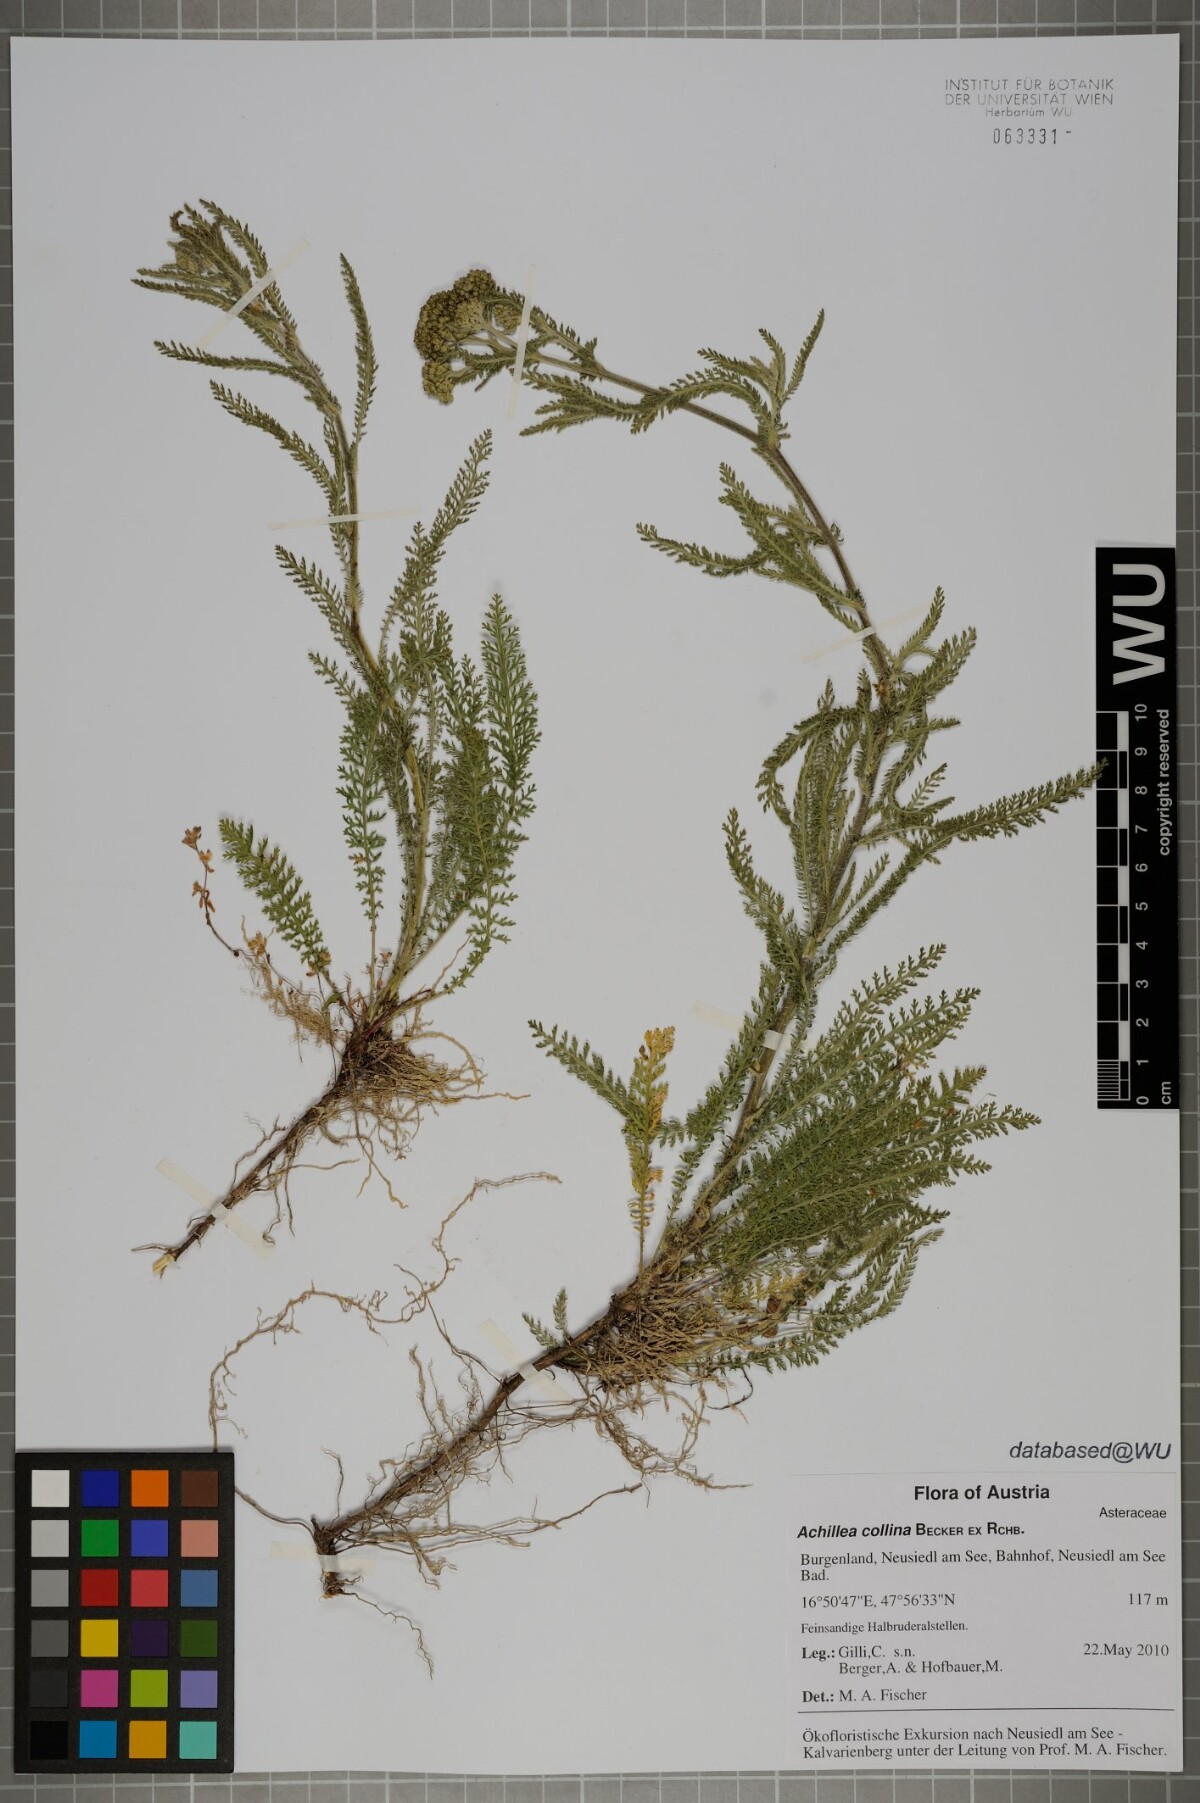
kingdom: Plantae
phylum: Tracheophyta
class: Magnoliopsida
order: Asterales
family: Asteraceae
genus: Achillea
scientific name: Achillea collina
